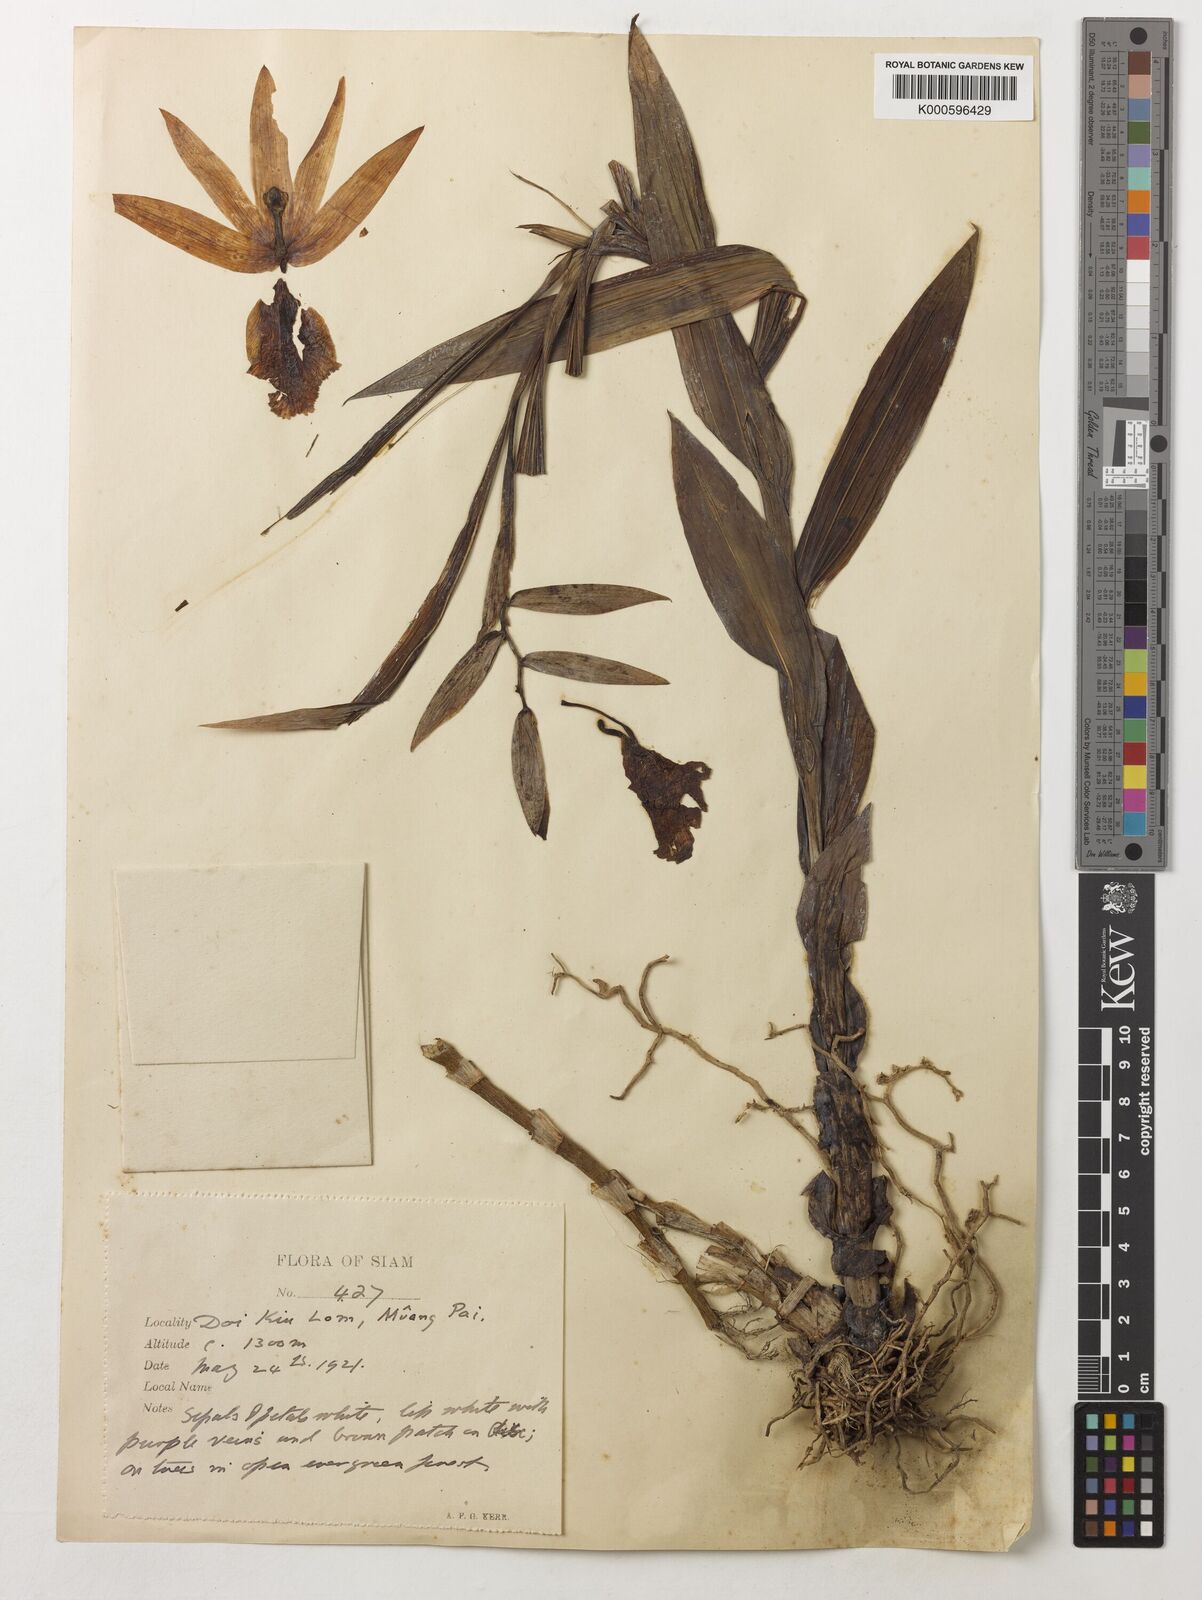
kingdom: Plantae
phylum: Tracheophyta
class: Liliopsida
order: Asparagales
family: Orchidaceae
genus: Thunia
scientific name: Thunia alba
